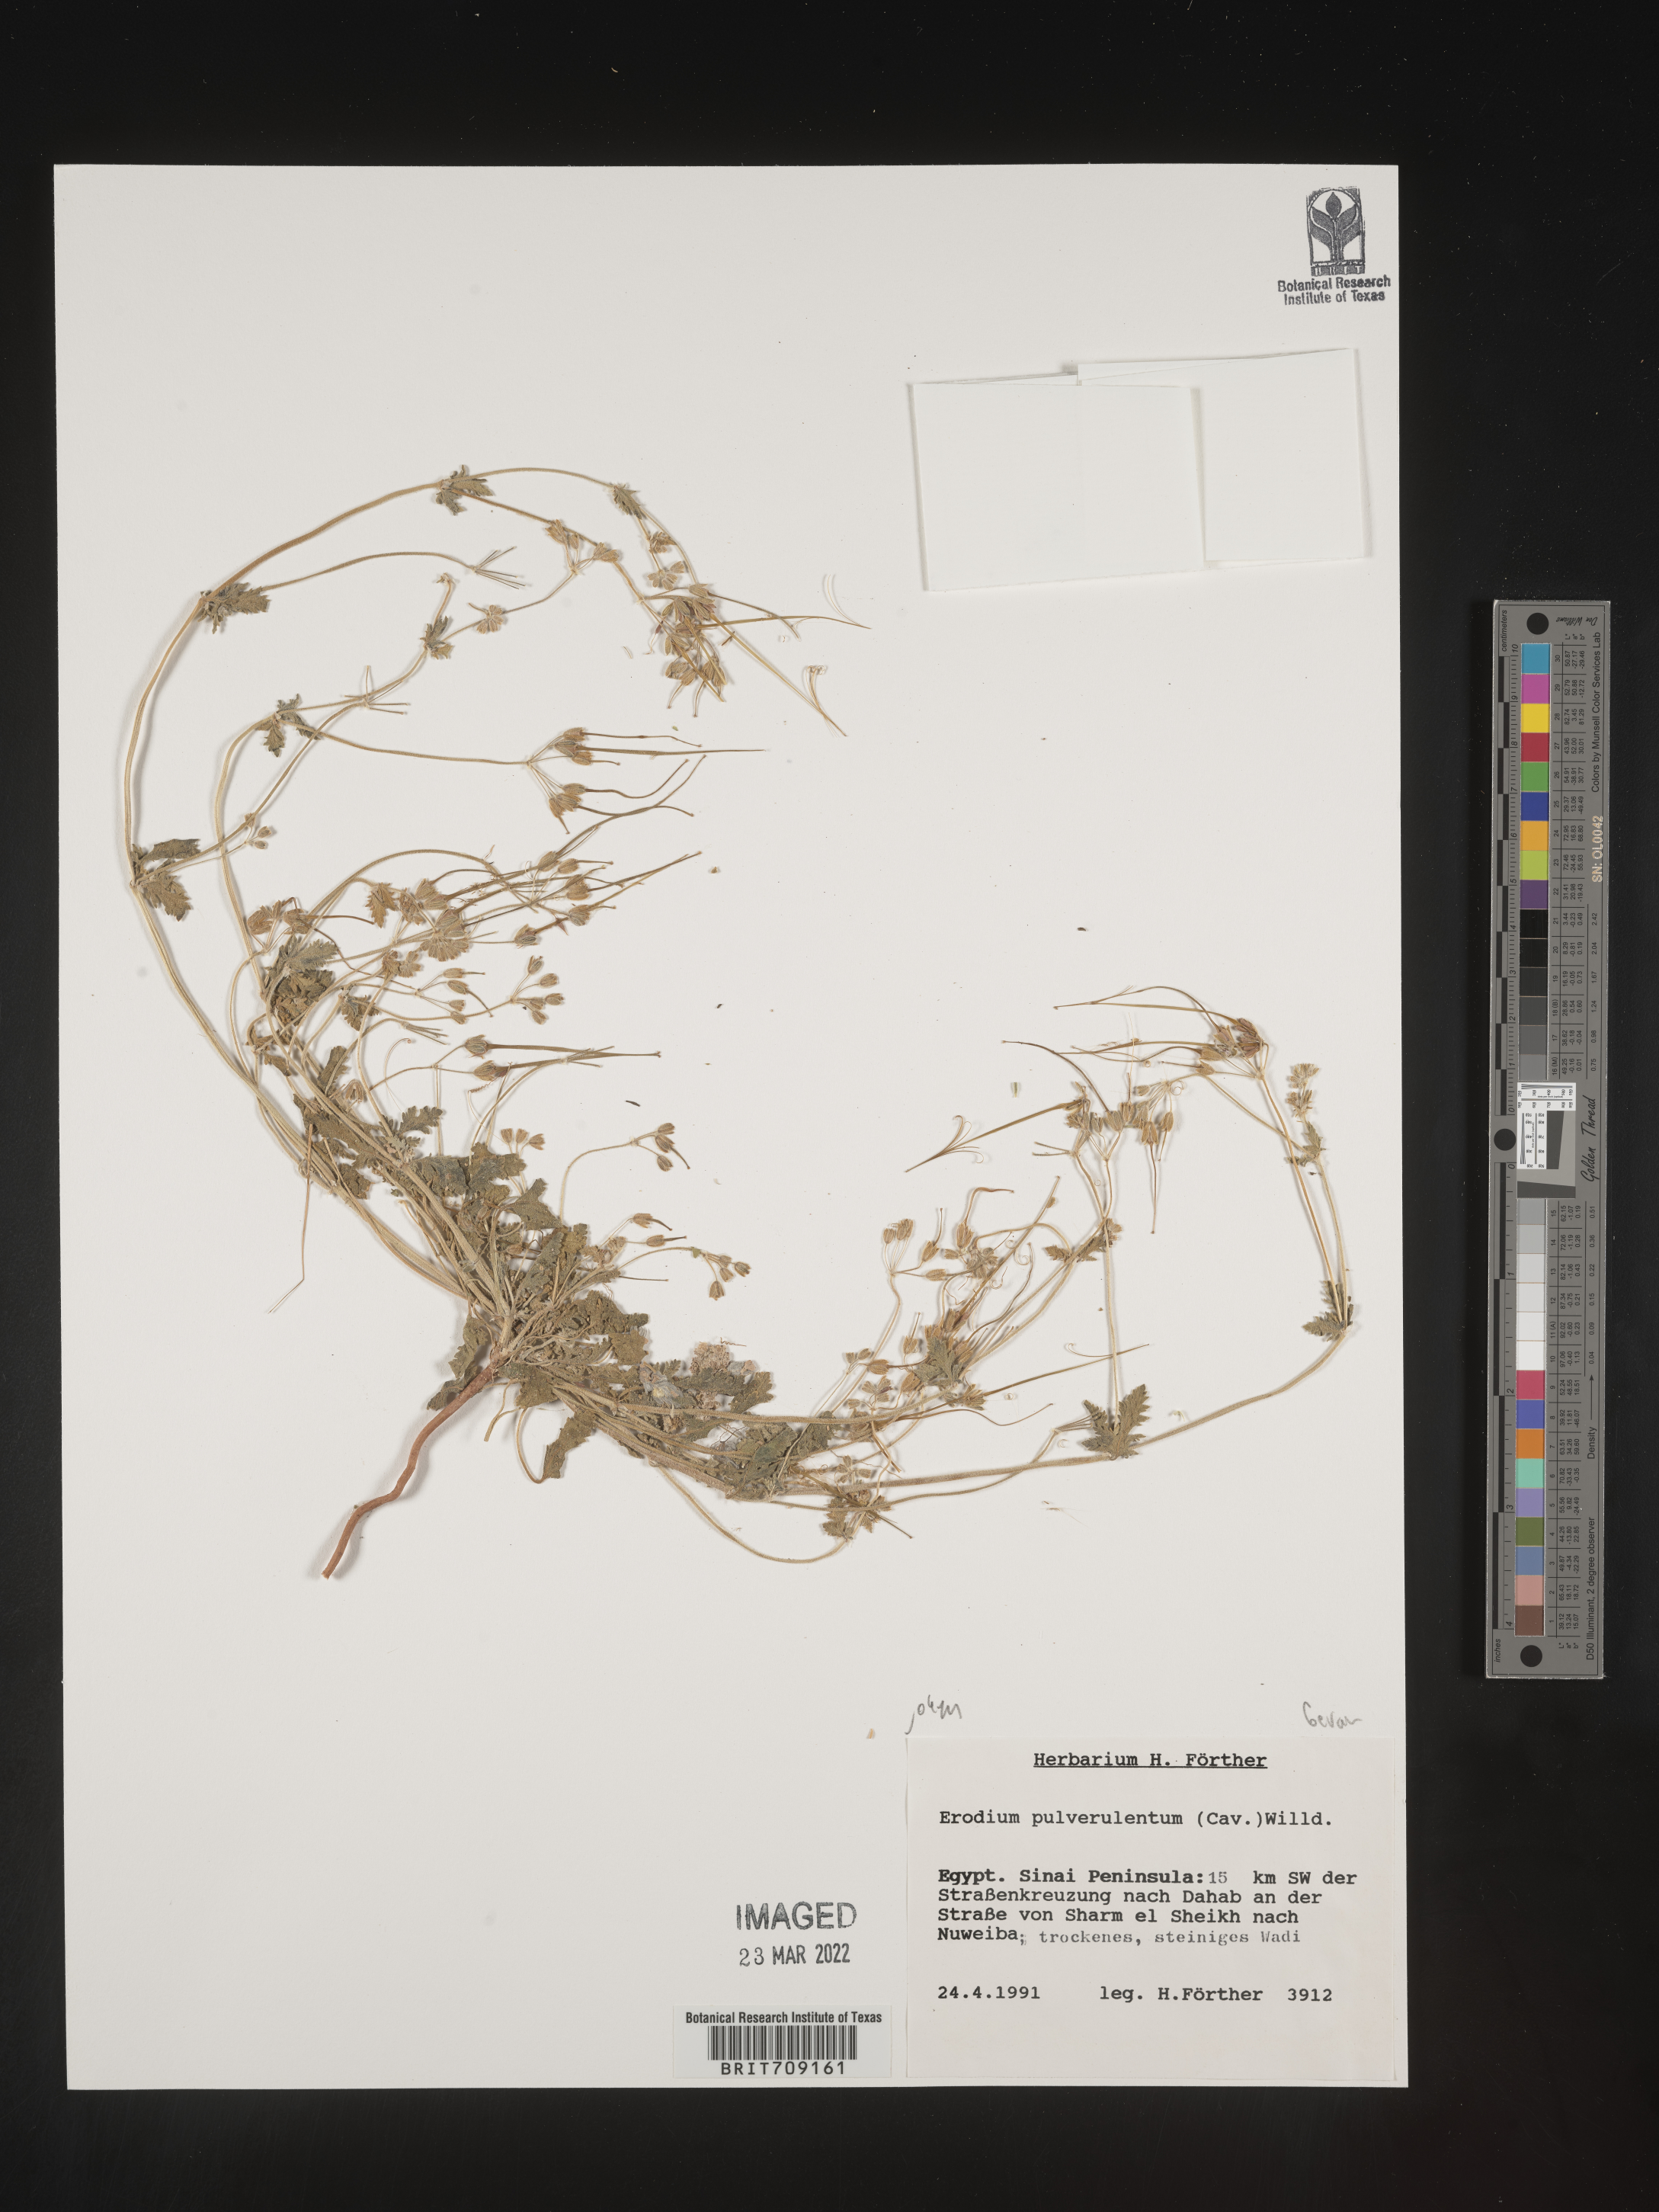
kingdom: Plantae
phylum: Tracheophyta
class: Magnoliopsida
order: Geraniales
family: Geraniaceae
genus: Erodium
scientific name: Erodium
